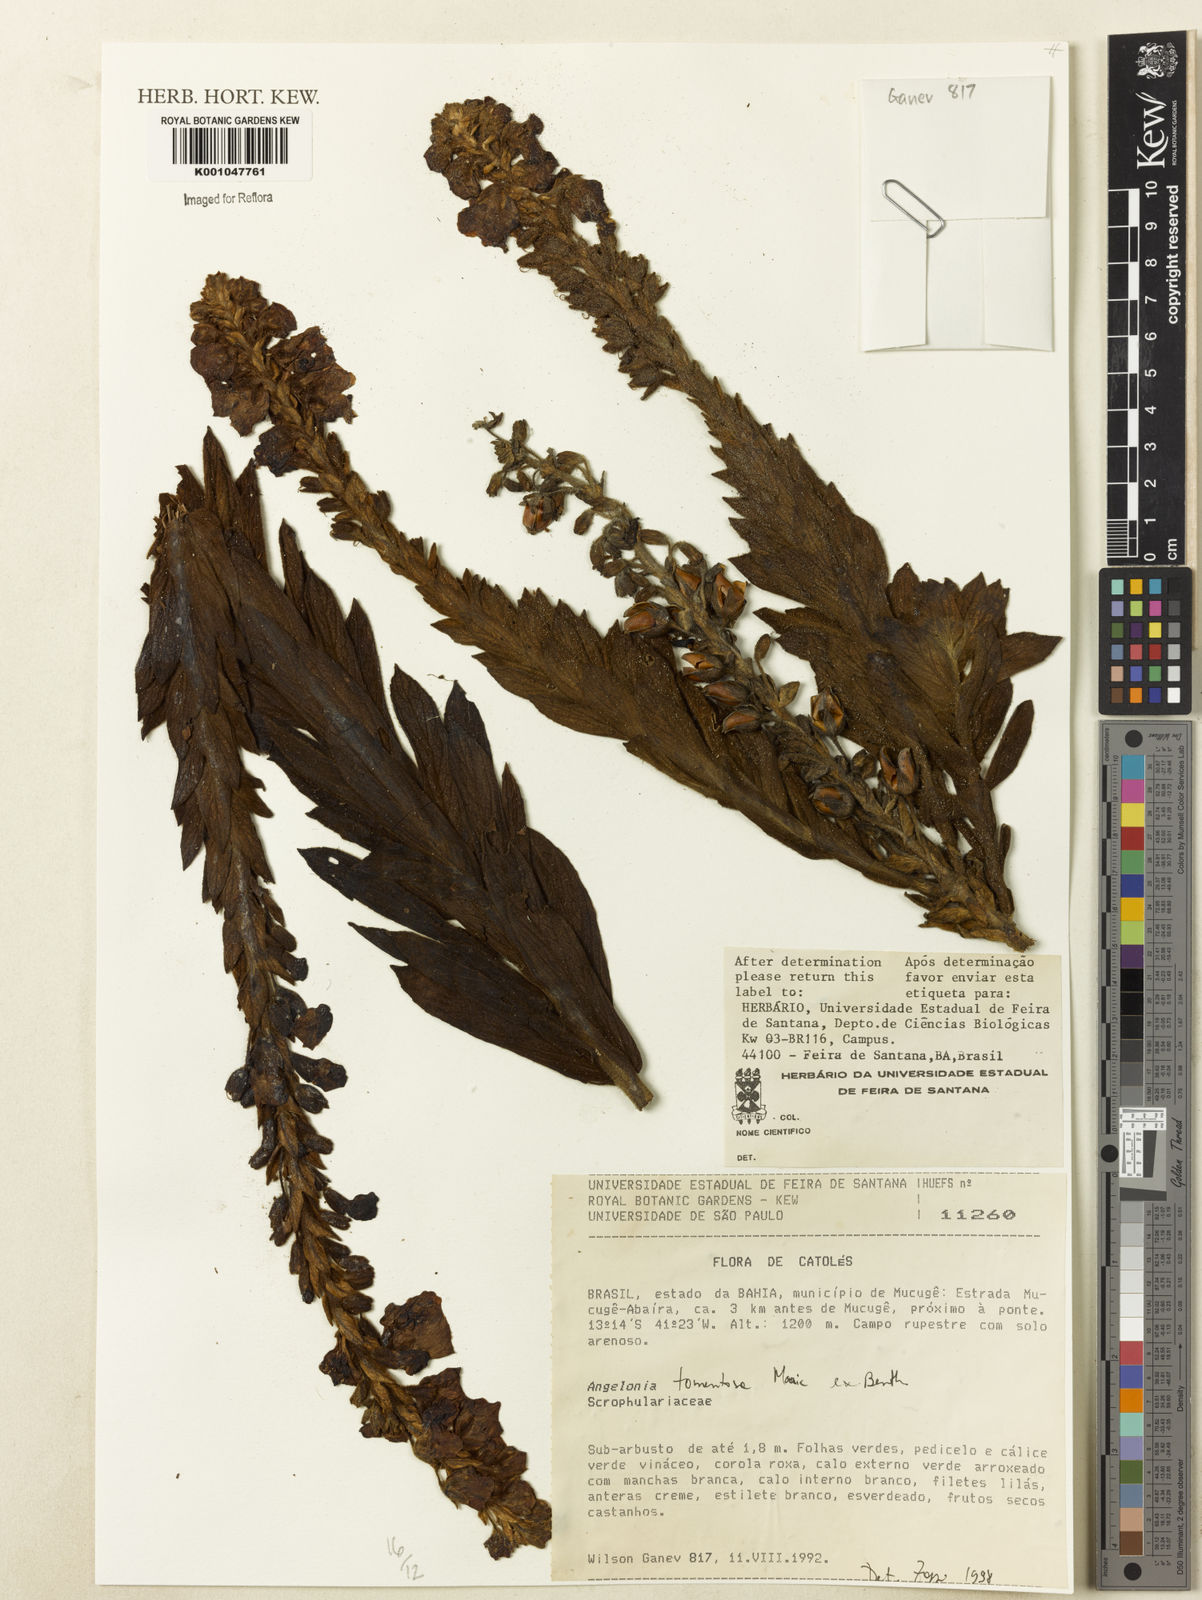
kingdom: Plantae
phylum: Tracheophyta
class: Magnoliopsida
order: Lamiales
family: Plantaginaceae
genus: Angelonia
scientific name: Angelonia tomentosa
